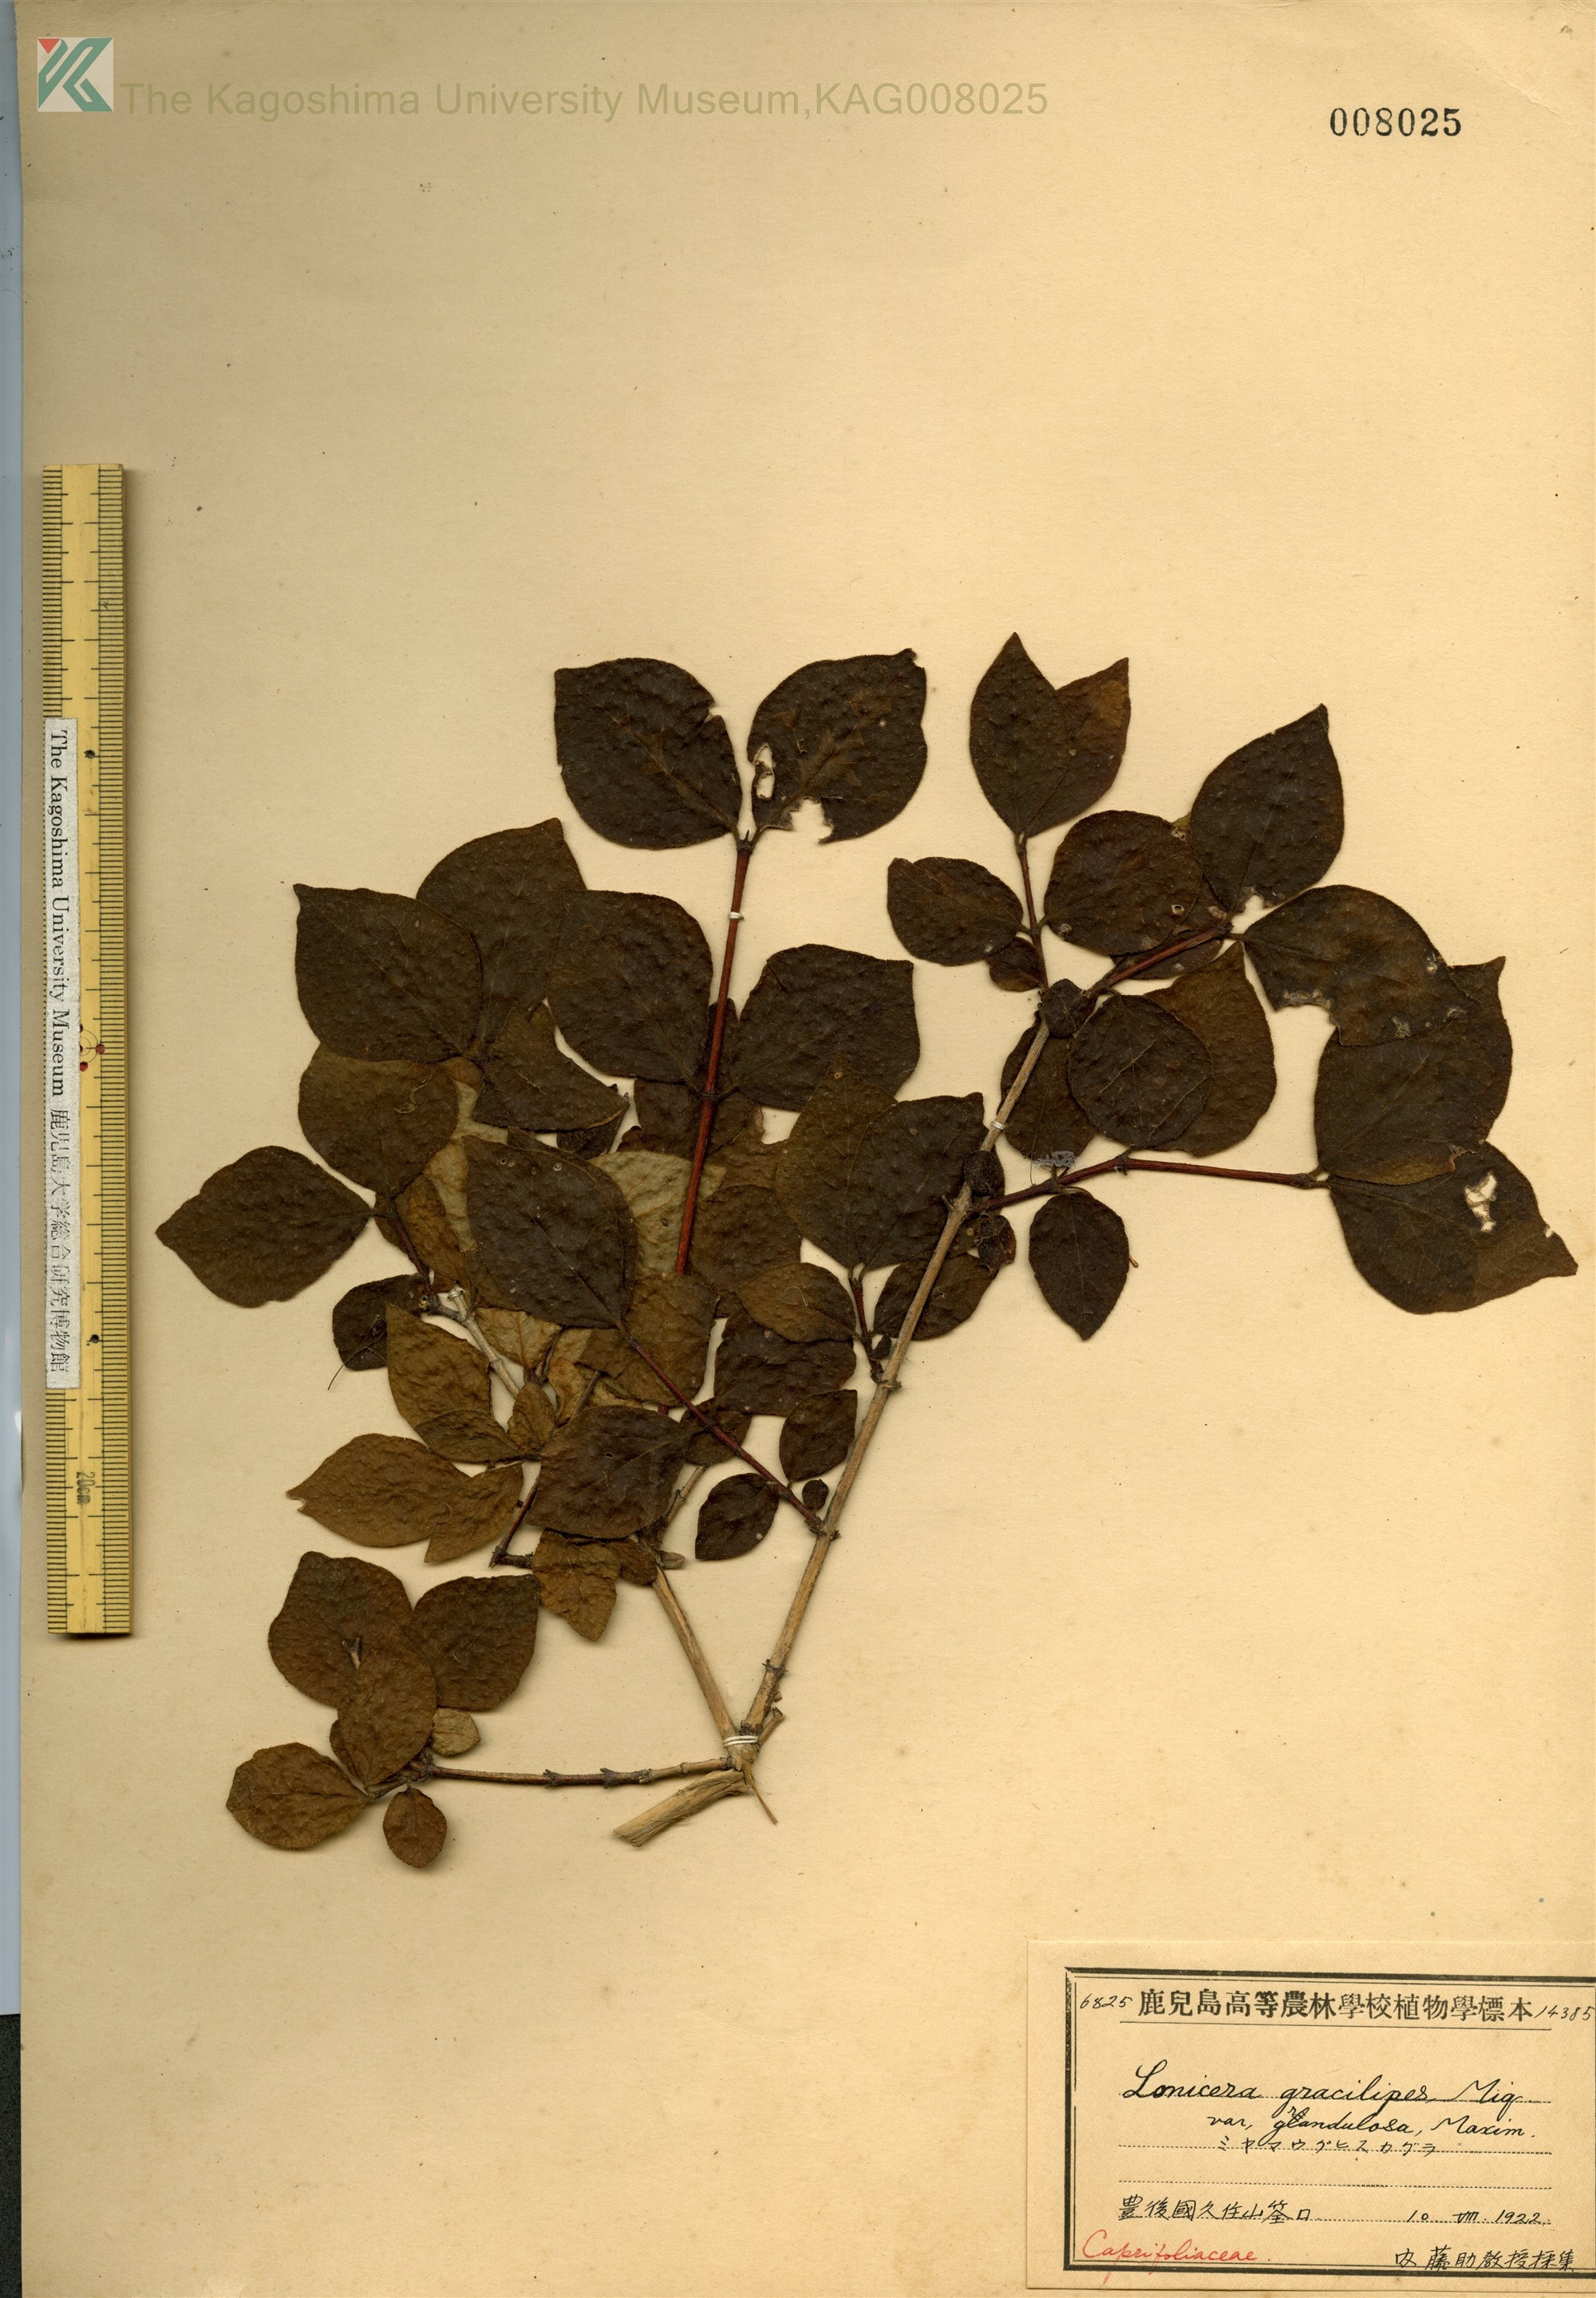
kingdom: Plantae
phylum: Tracheophyta
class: Magnoliopsida
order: Dipsacales
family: Caprifoliaceae
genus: Lonicera
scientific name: Lonicera gracilipes
